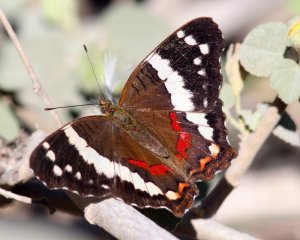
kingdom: Animalia
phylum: Arthropoda
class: Insecta
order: Lepidoptera
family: Nymphalidae
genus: Anartia
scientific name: Anartia fatima
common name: Banded Peacock
